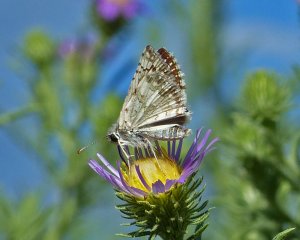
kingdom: Animalia
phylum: Arthropoda
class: Insecta
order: Lepidoptera
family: Hesperiidae
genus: Pyrgus
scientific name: Pyrgus communis
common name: Common Checkered-Skipper
